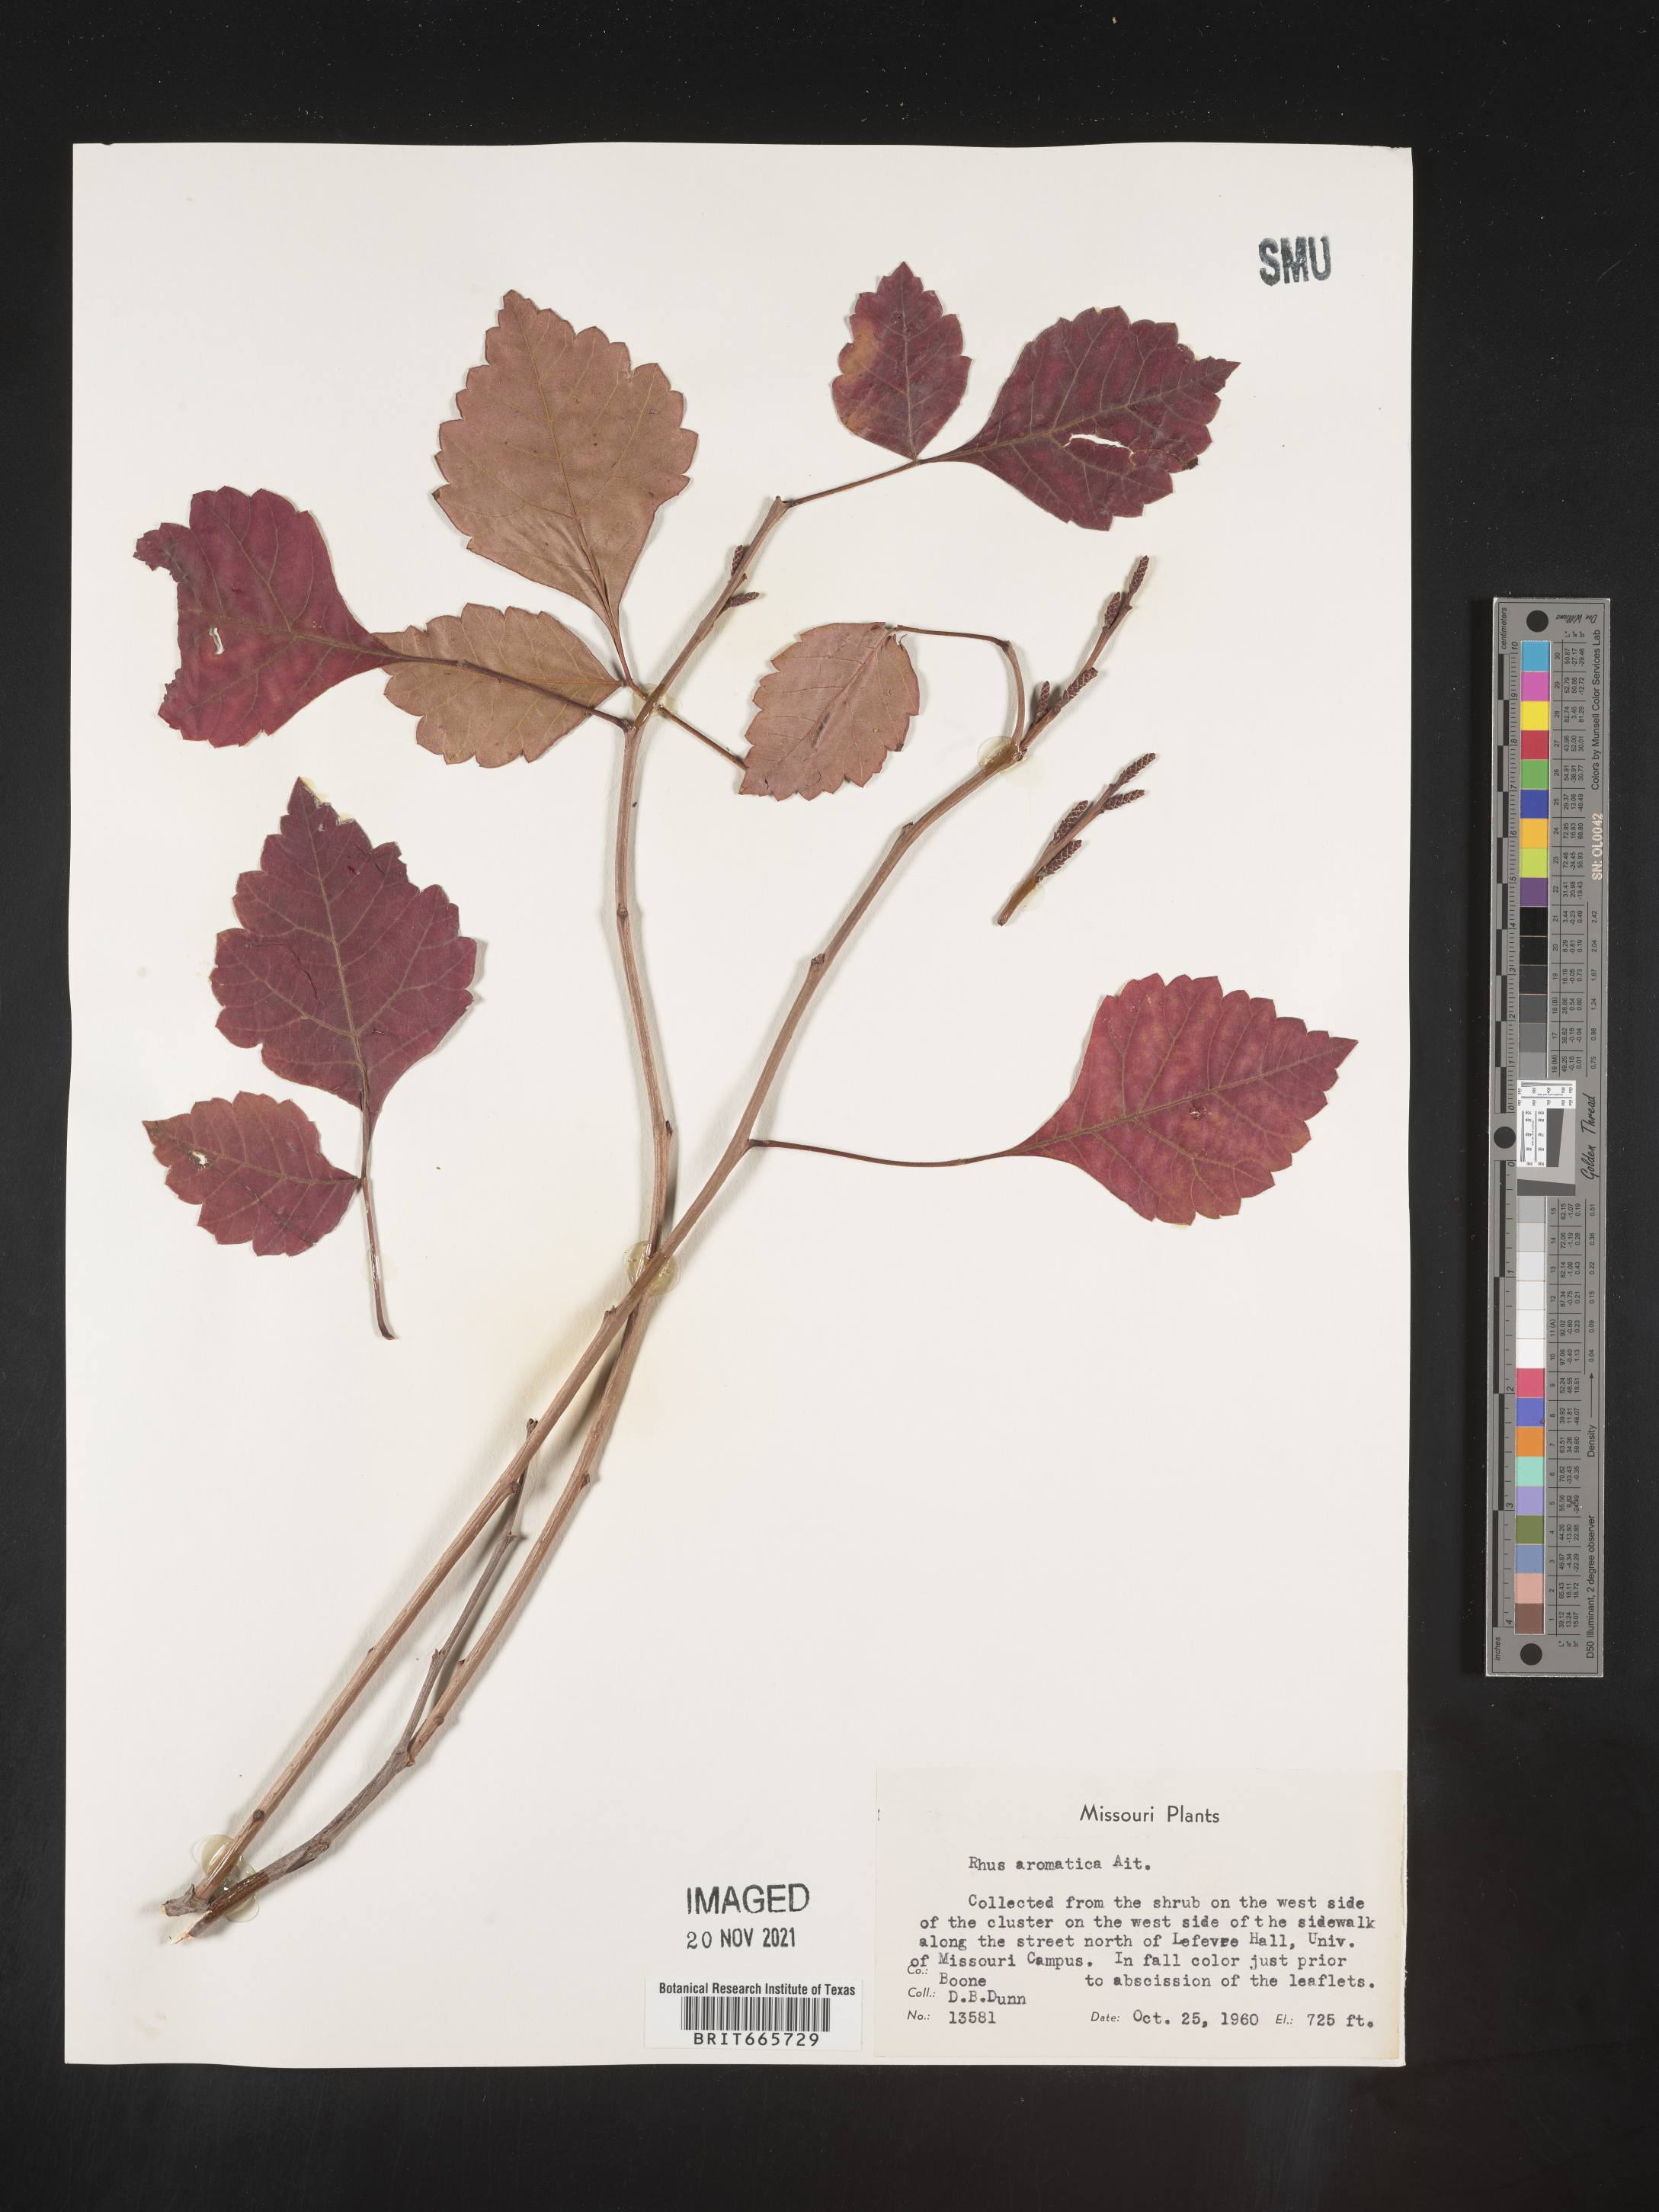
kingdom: Plantae
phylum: Tracheophyta
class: Magnoliopsida
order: Sapindales
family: Anacardiaceae
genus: Rhus
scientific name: Rhus aromatica
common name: Aromatic sumac
